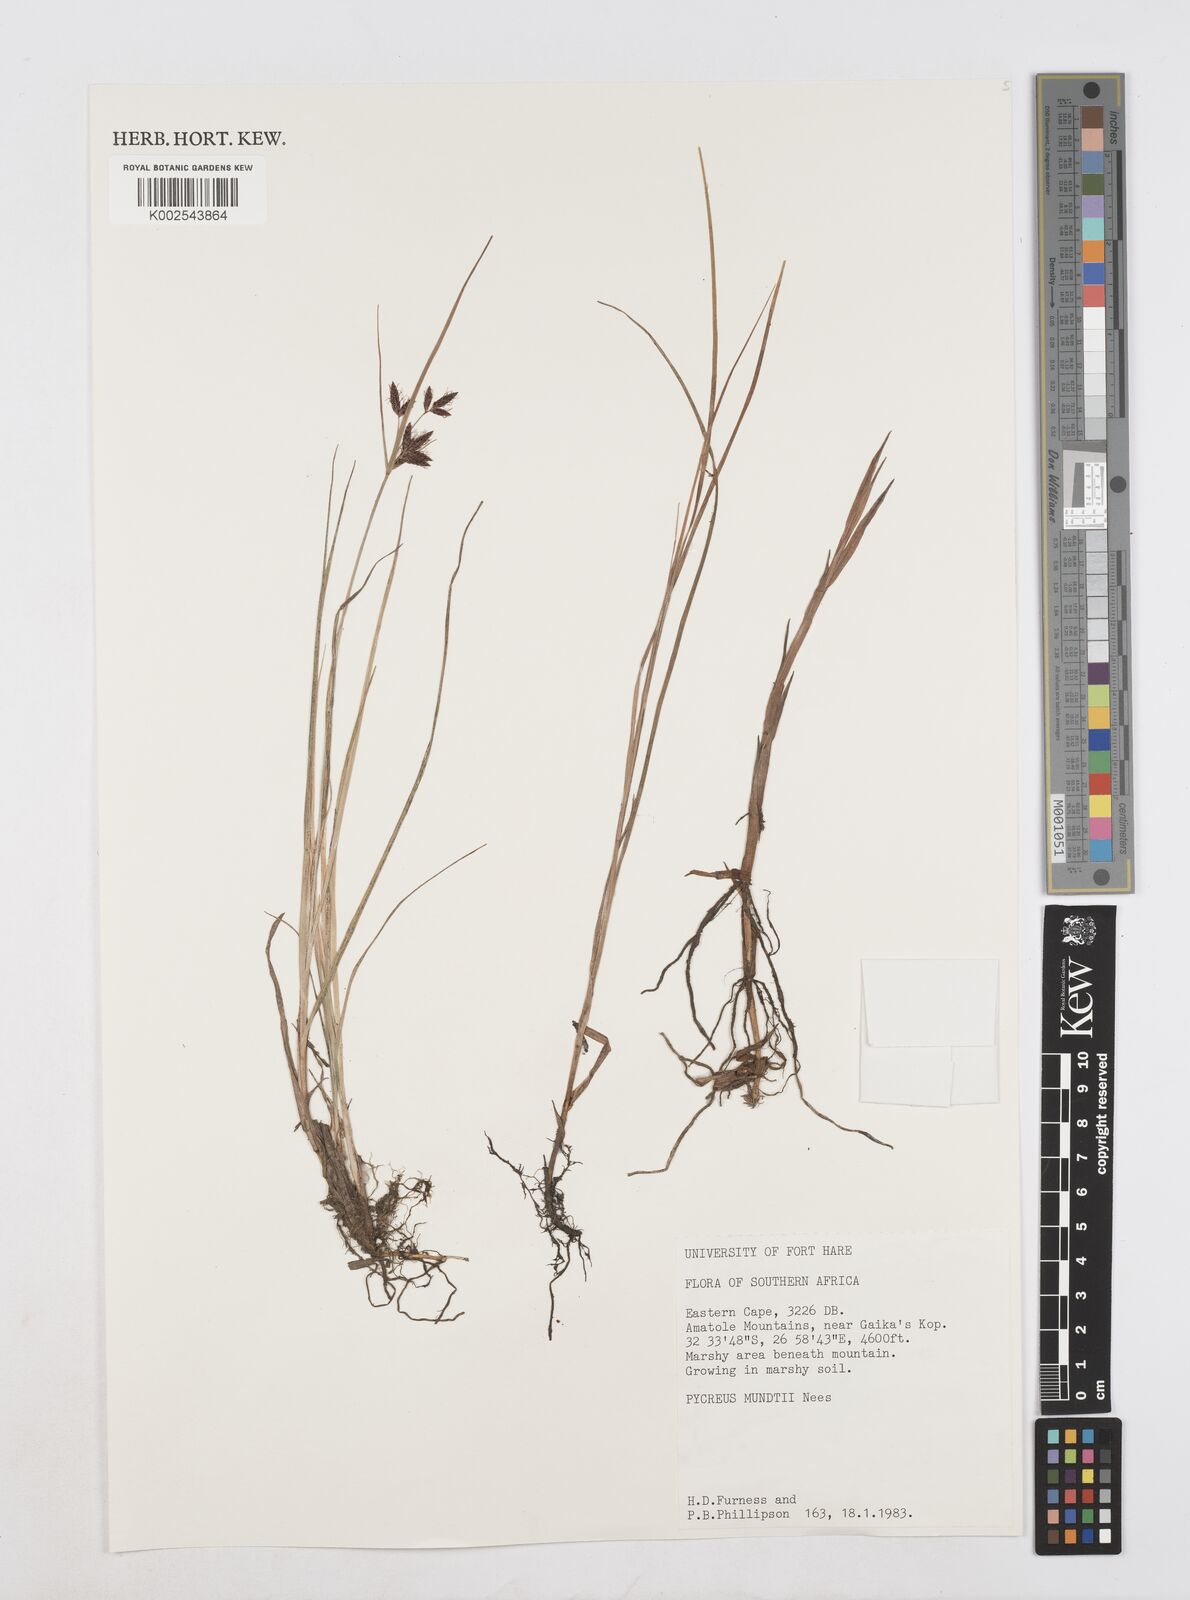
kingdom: Plantae
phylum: Tracheophyta
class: Liliopsida
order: Poales
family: Cyperaceae
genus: Cyperus
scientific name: Cyperus mundii
